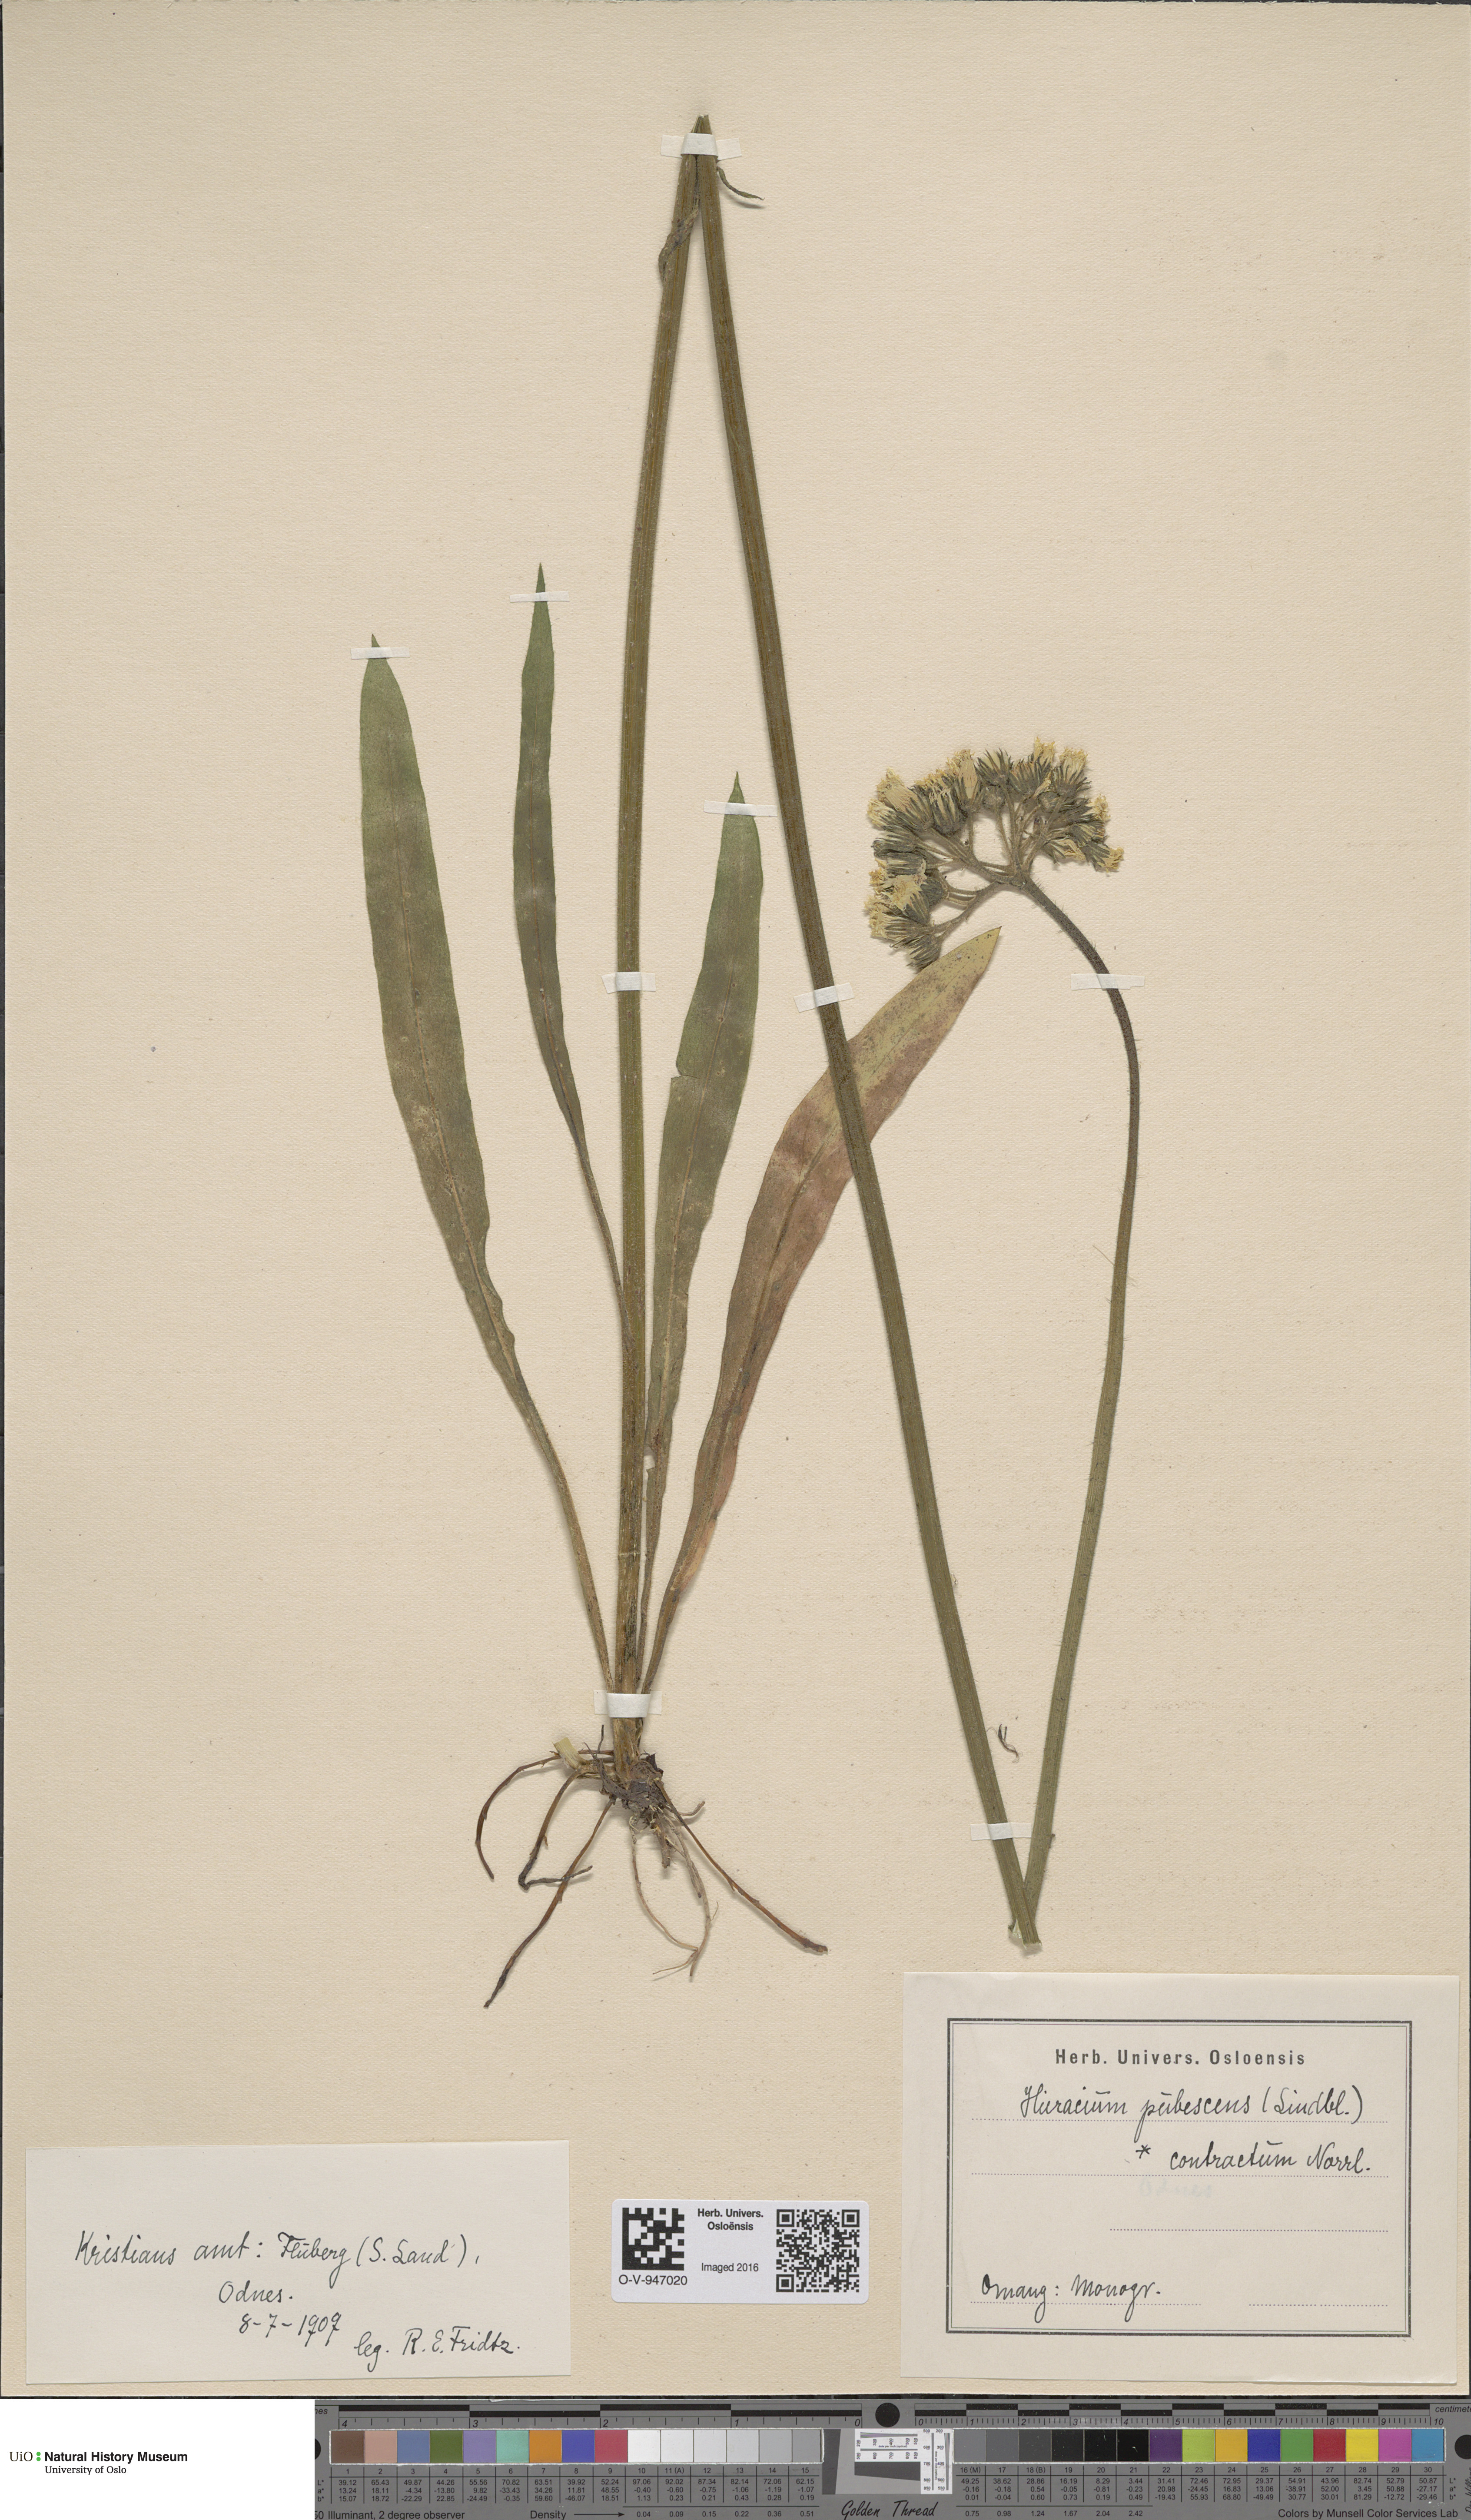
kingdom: Plantae
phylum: Tracheophyta
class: Magnoliopsida
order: Asterales
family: Asteraceae
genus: Pilosella
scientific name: Pilosella cymosa
